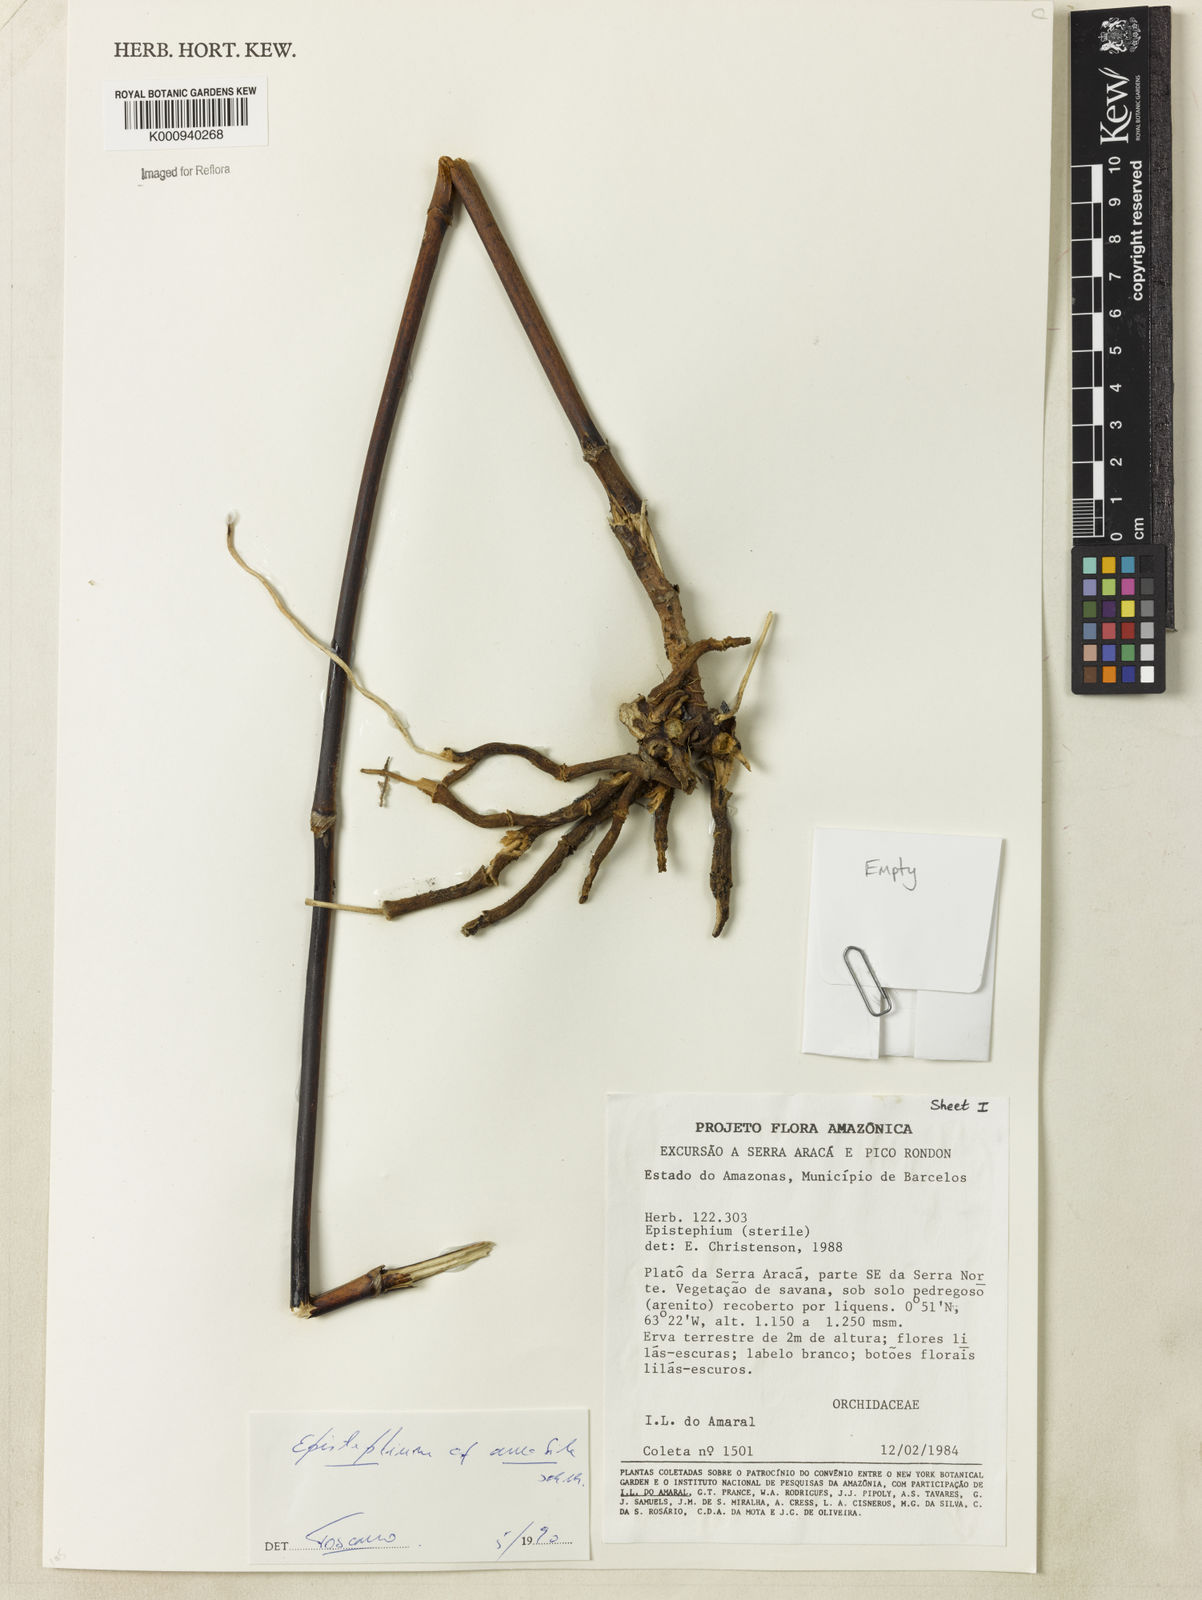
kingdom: Plantae
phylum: Tracheophyta
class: Liliopsida
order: Asparagales
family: Orchidaceae
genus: Epistephium
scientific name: Epistephium amabile
